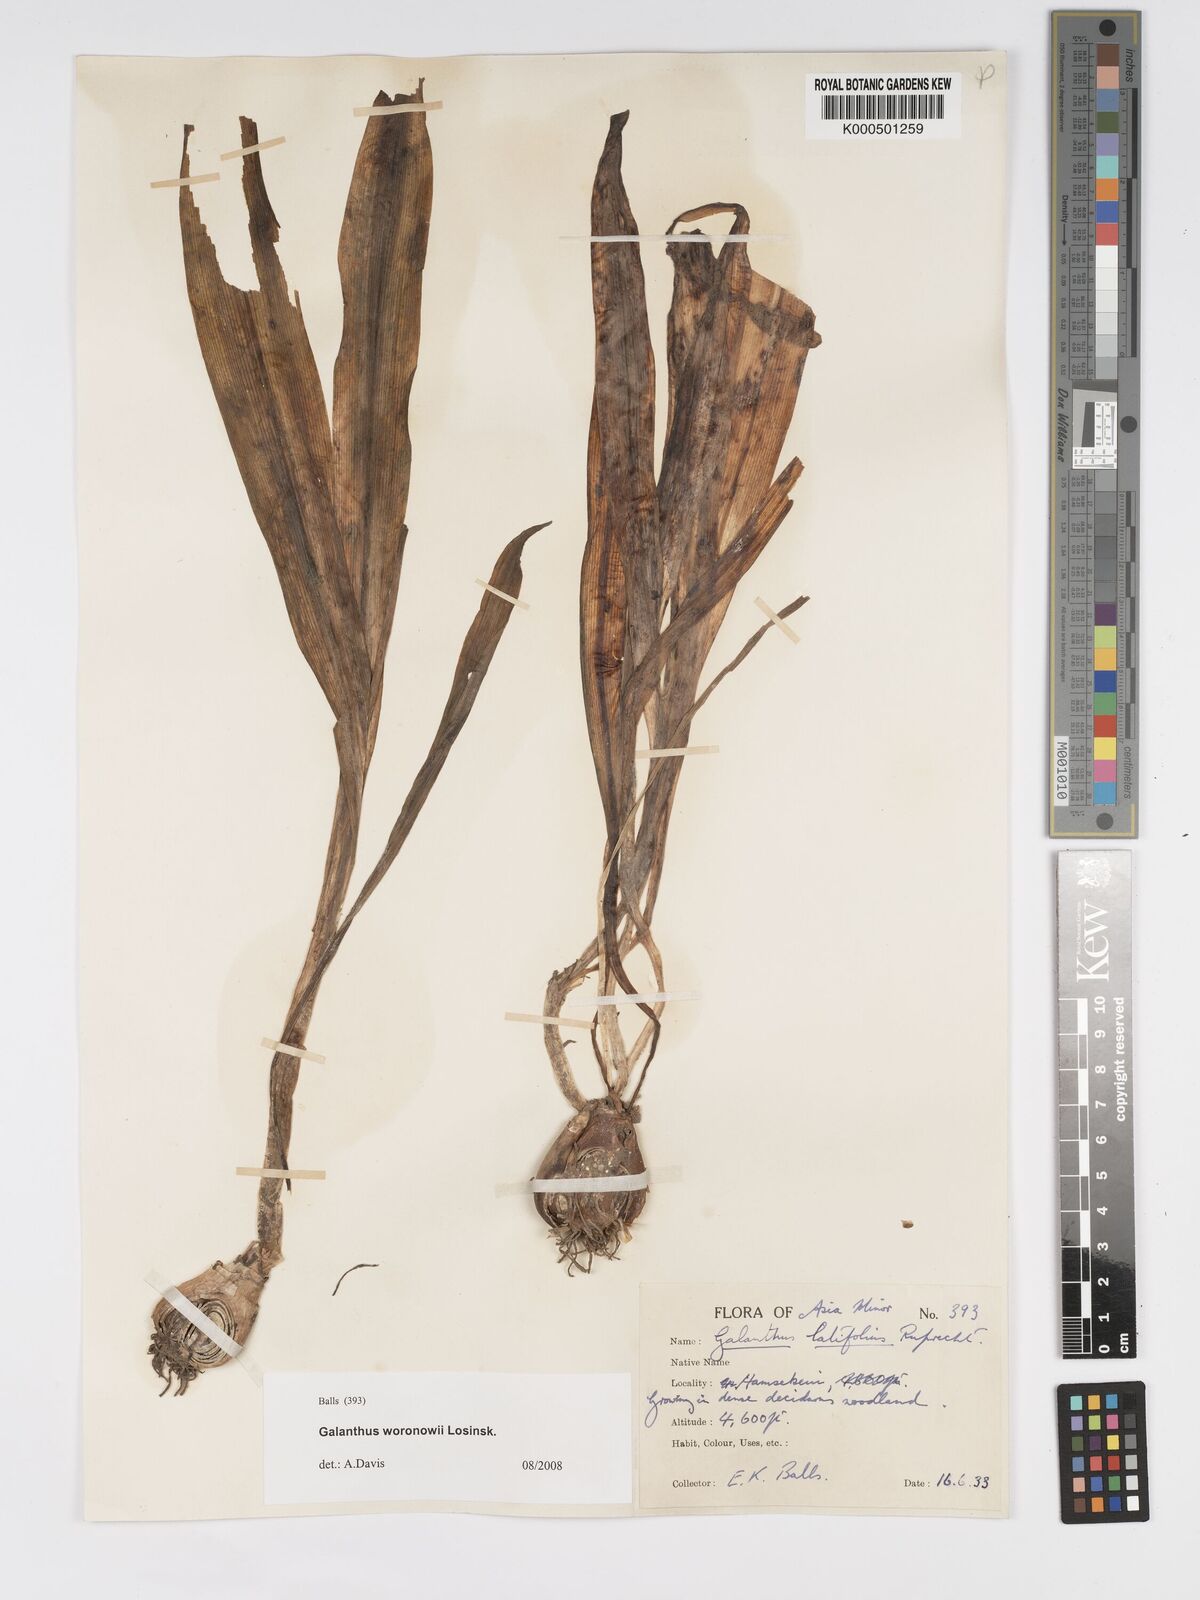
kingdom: Plantae
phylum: Tracheophyta
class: Liliopsida
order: Asparagales
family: Amaryllidaceae
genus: Galanthus
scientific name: Galanthus woronowii
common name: Green snowdrop
